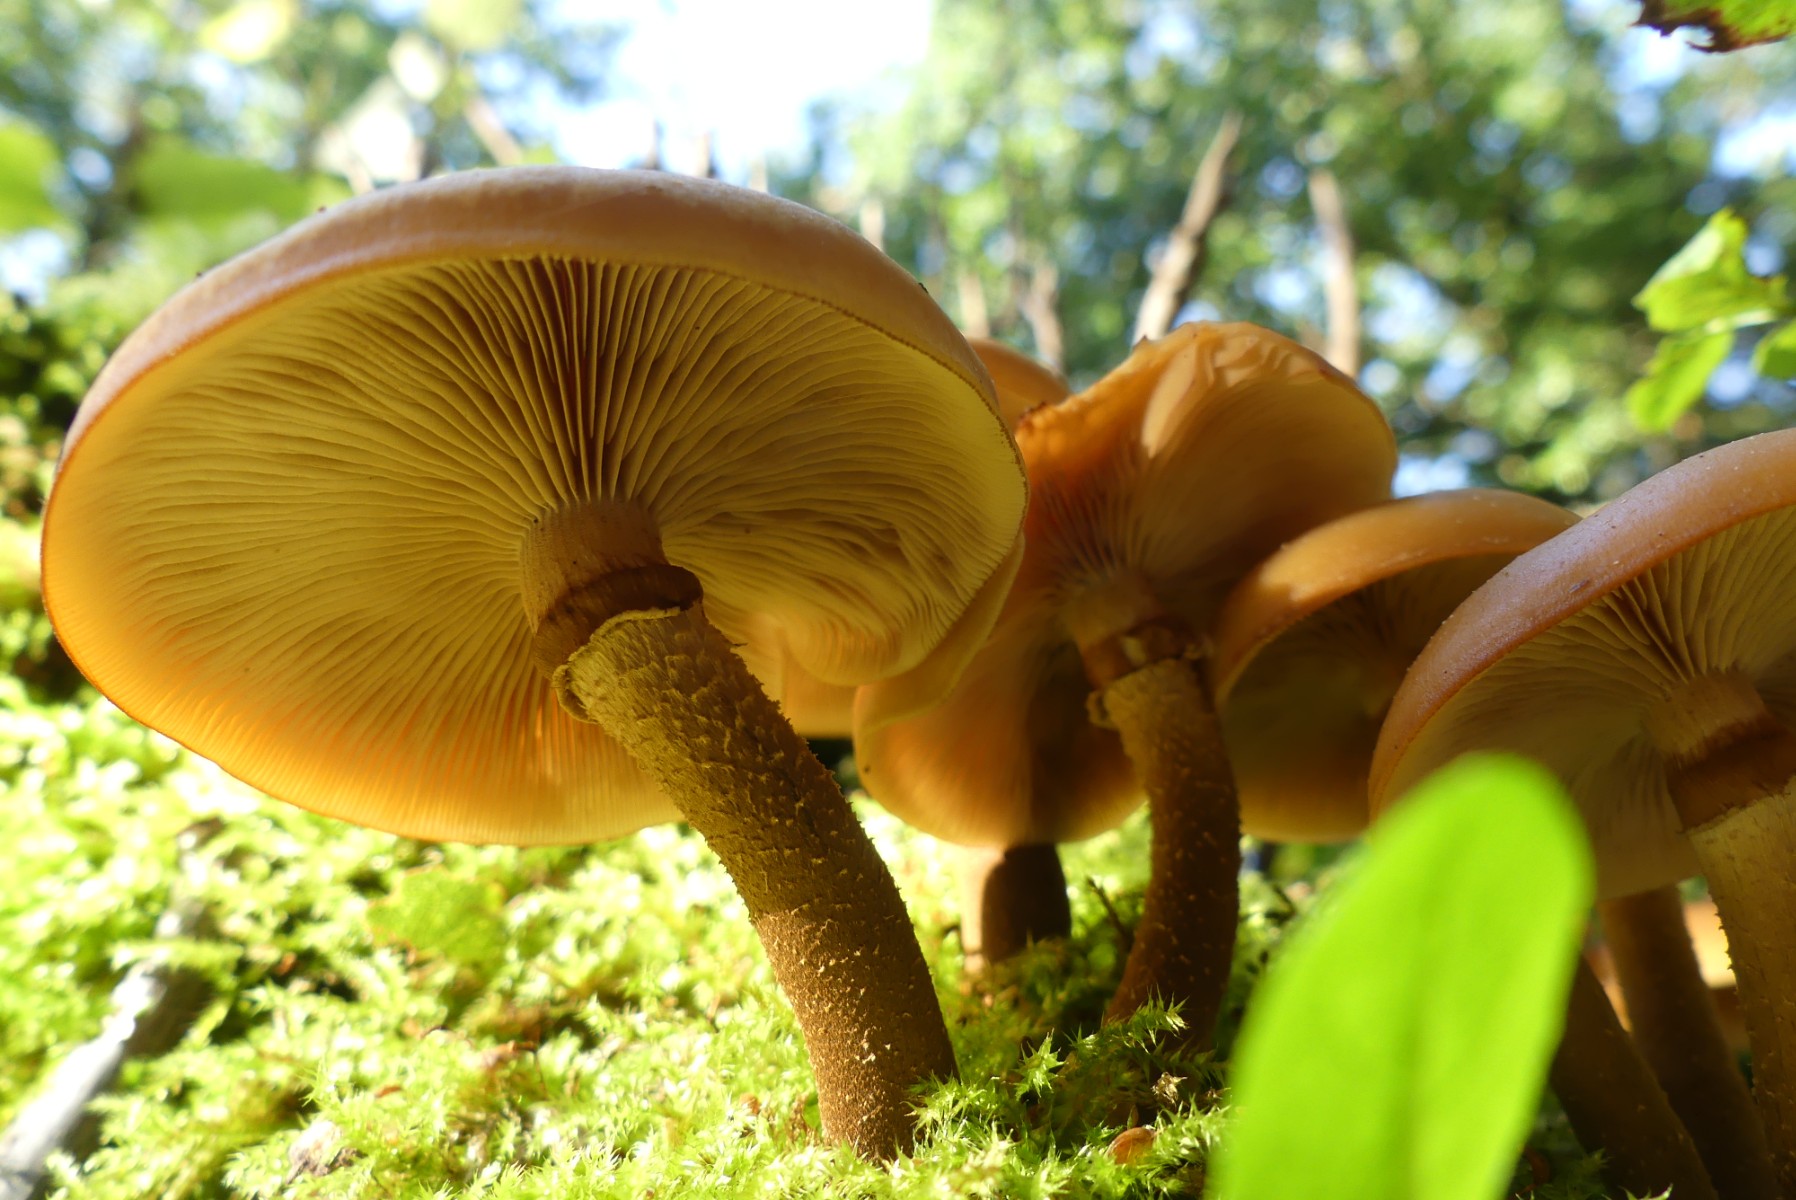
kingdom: Fungi
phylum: Basidiomycota
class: Agaricomycetes
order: Agaricales
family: Strophariaceae
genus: Kuehneromyces
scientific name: Kuehneromyces mutabilis
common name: foranderlig skælhat
